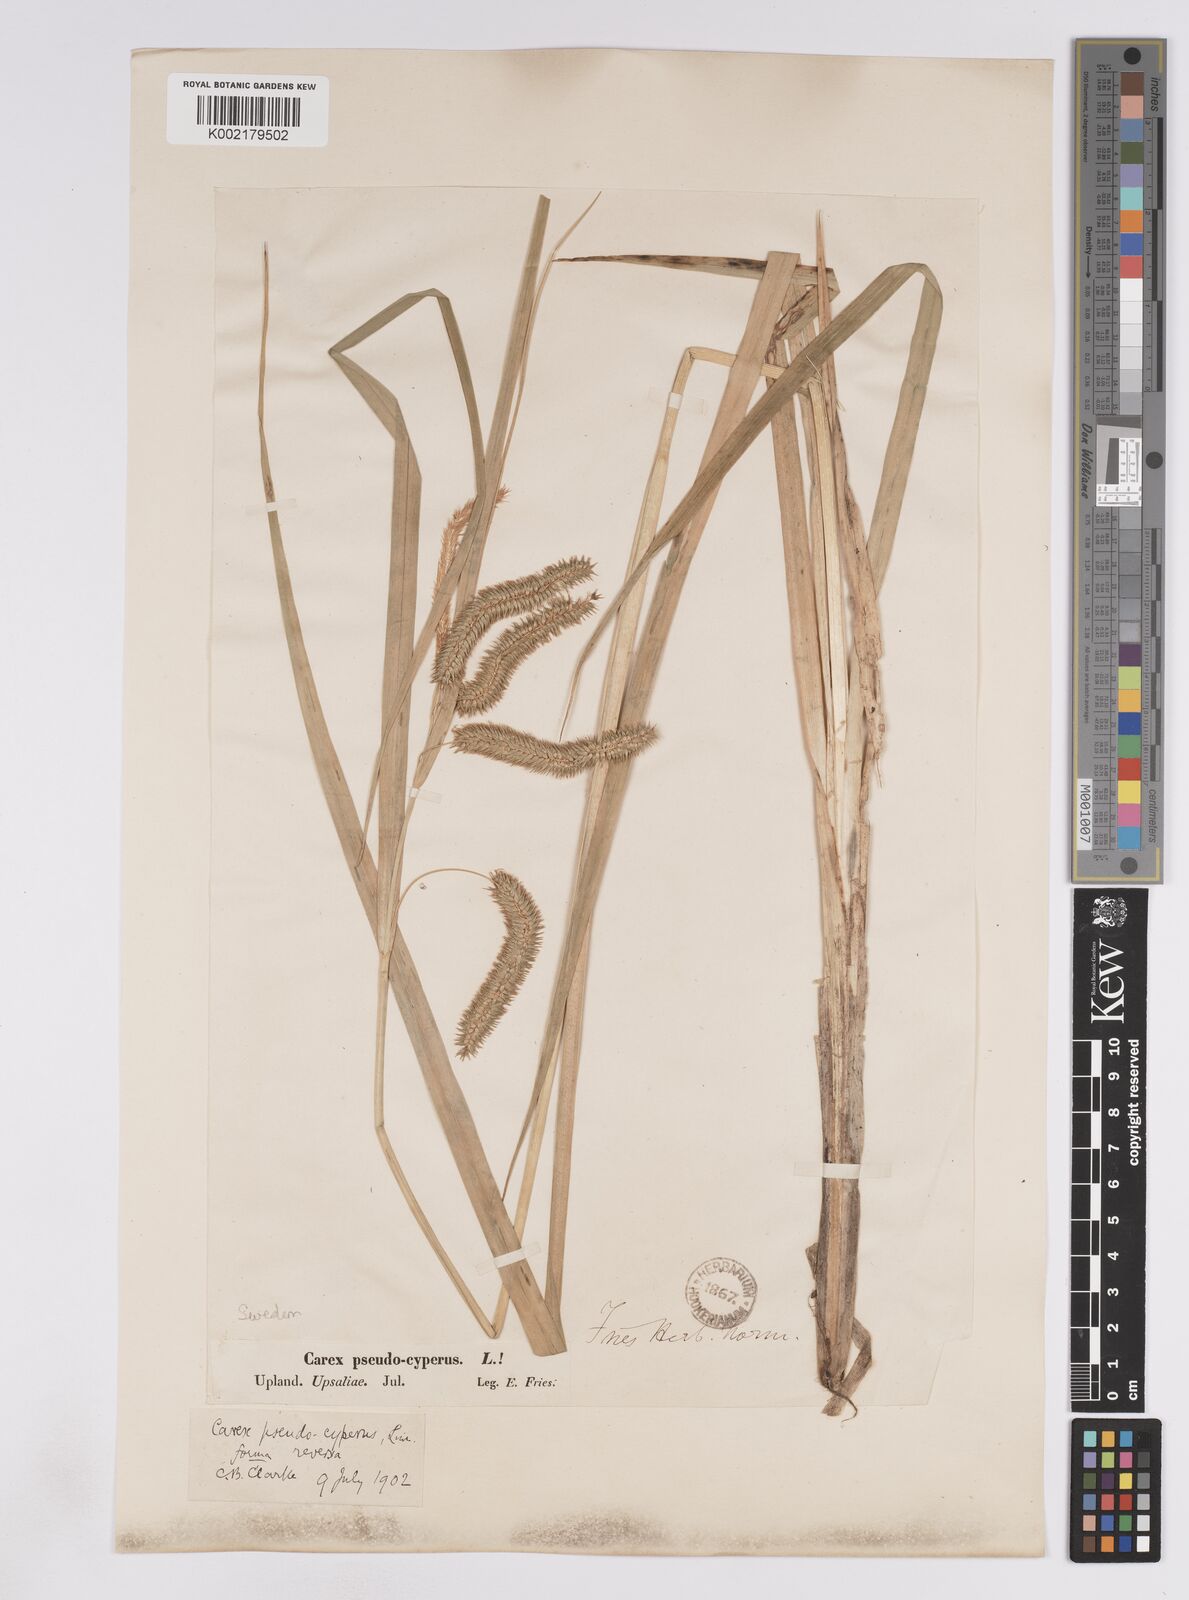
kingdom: Plantae
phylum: Tracheophyta
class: Liliopsida
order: Poales
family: Cyperaceae
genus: Carex
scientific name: Carex pseudocyperus
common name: Cyperus sedge
